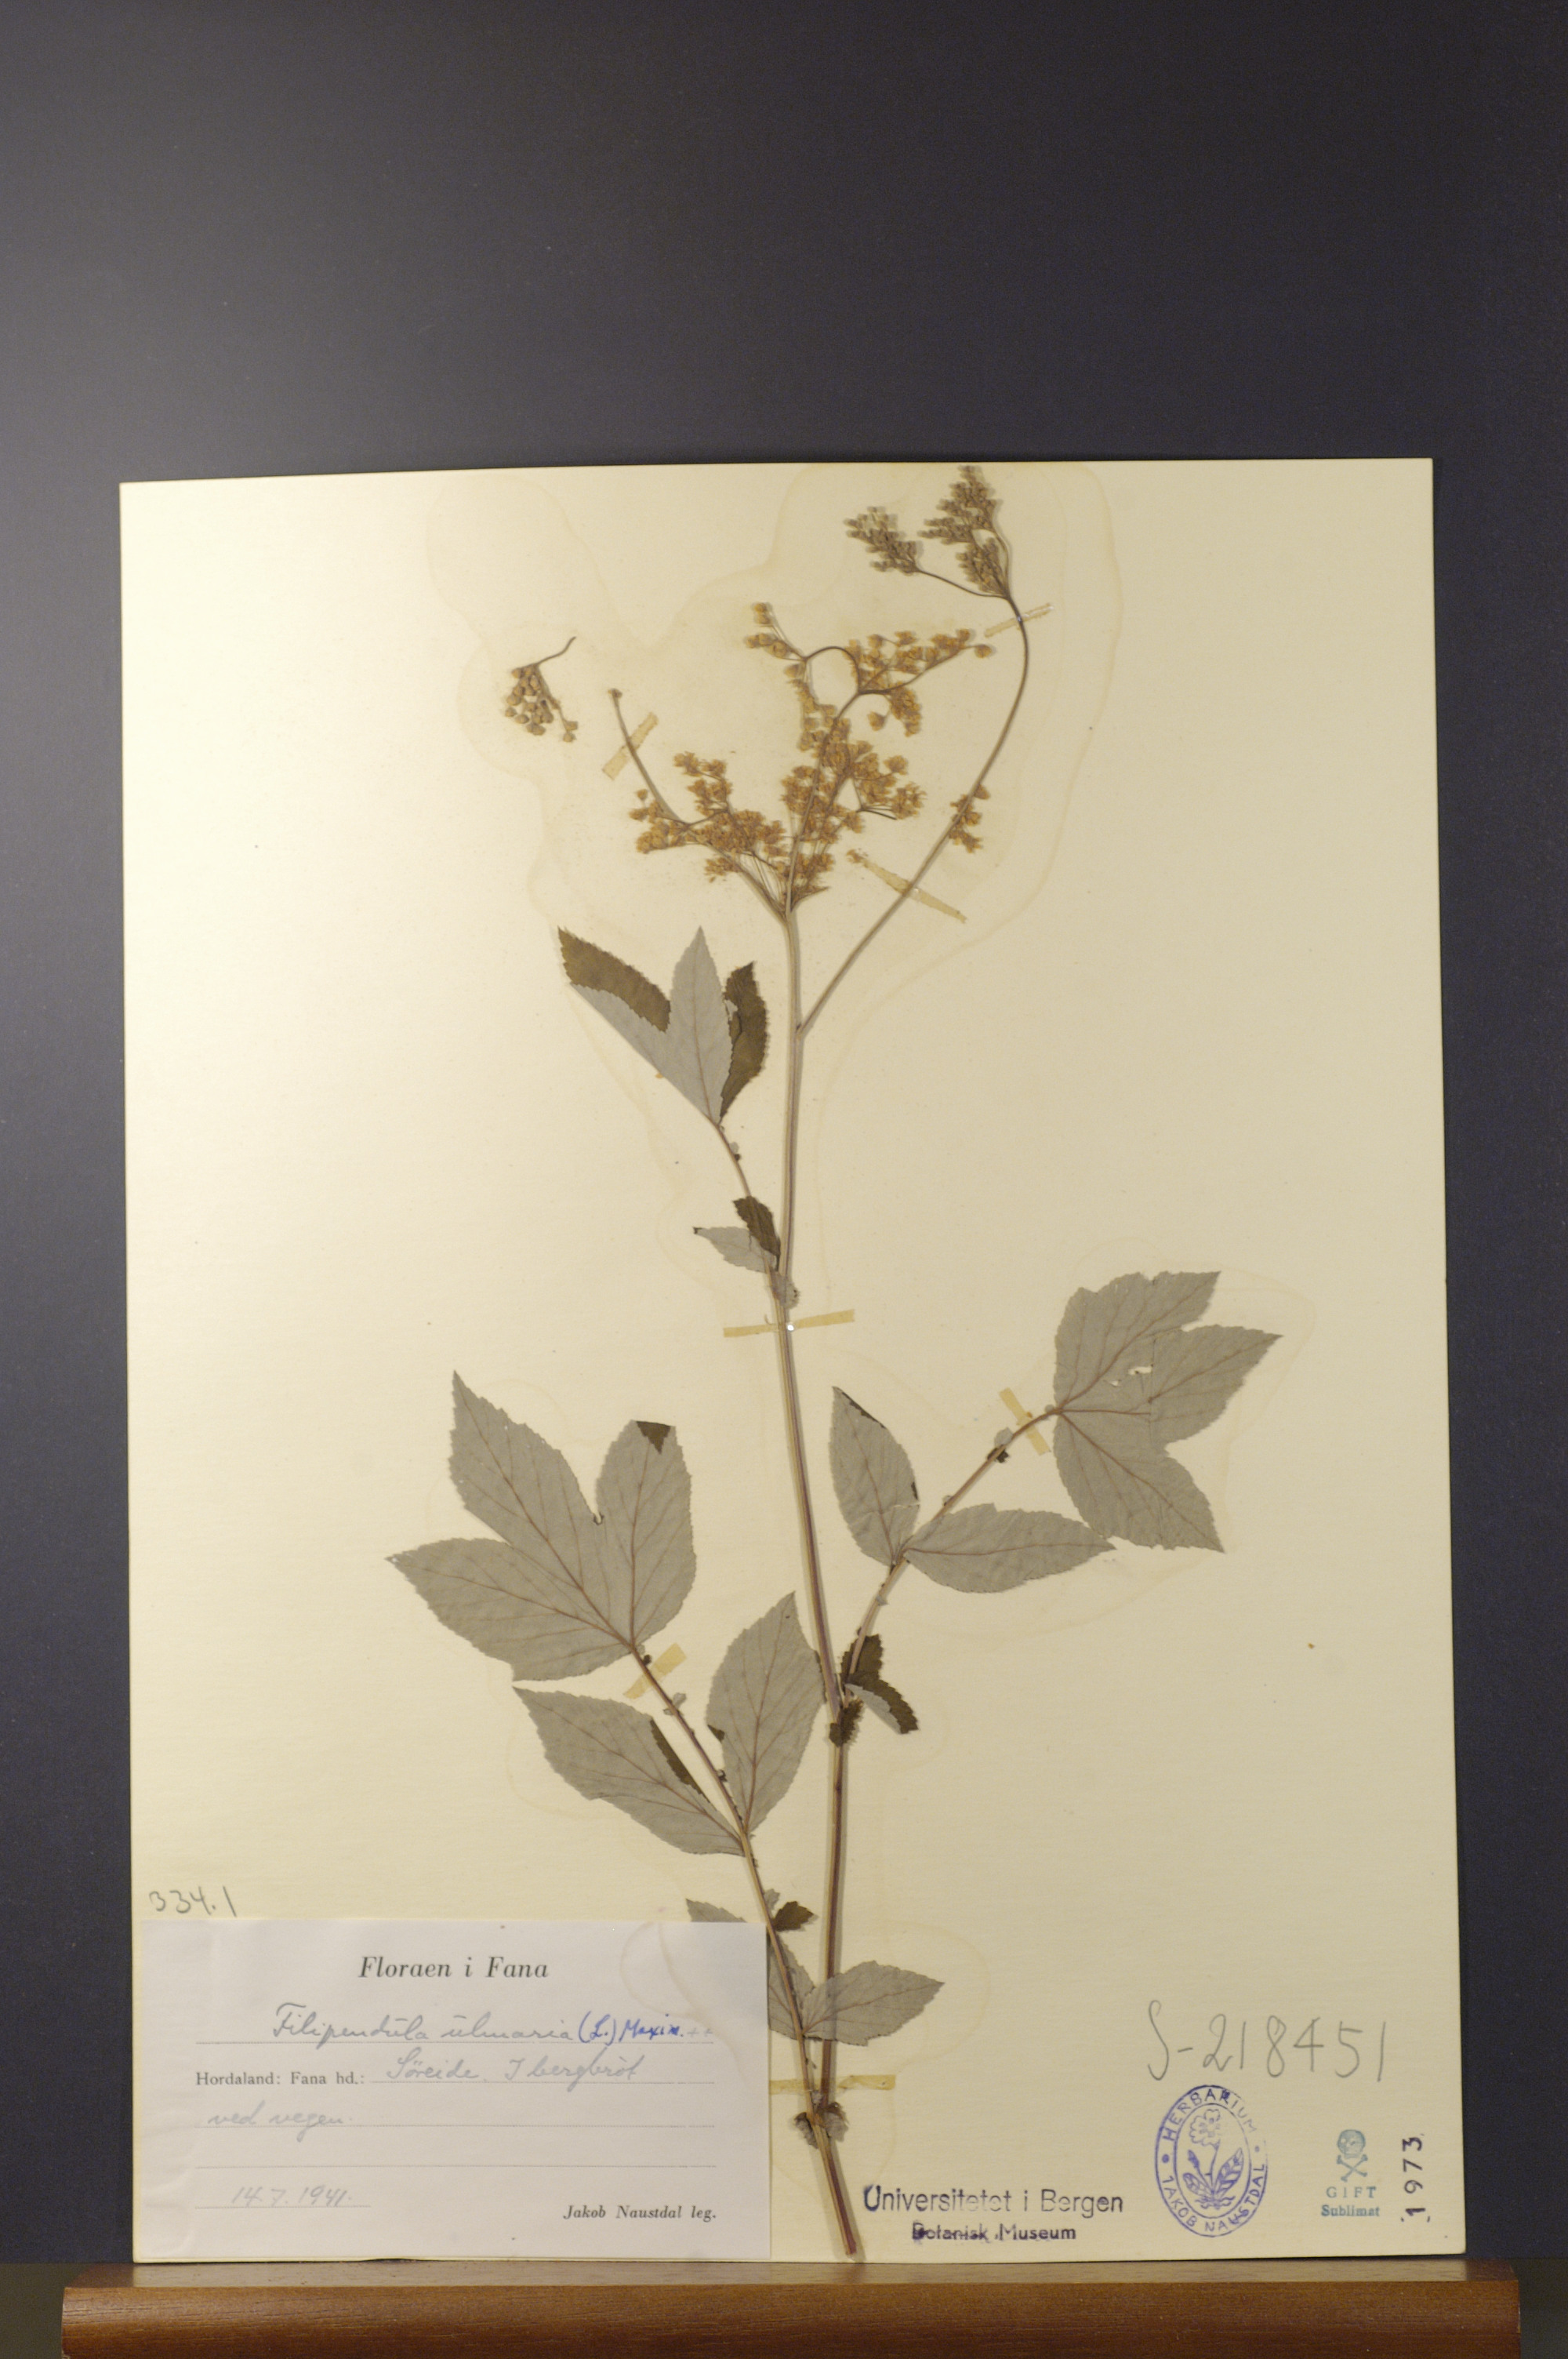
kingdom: Plantae
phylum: Tracheophyta
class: Magnoliopsida
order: Rosales
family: Rosaceae
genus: Filipendula
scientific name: Filipendula ulmaria
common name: Meadowsweet
